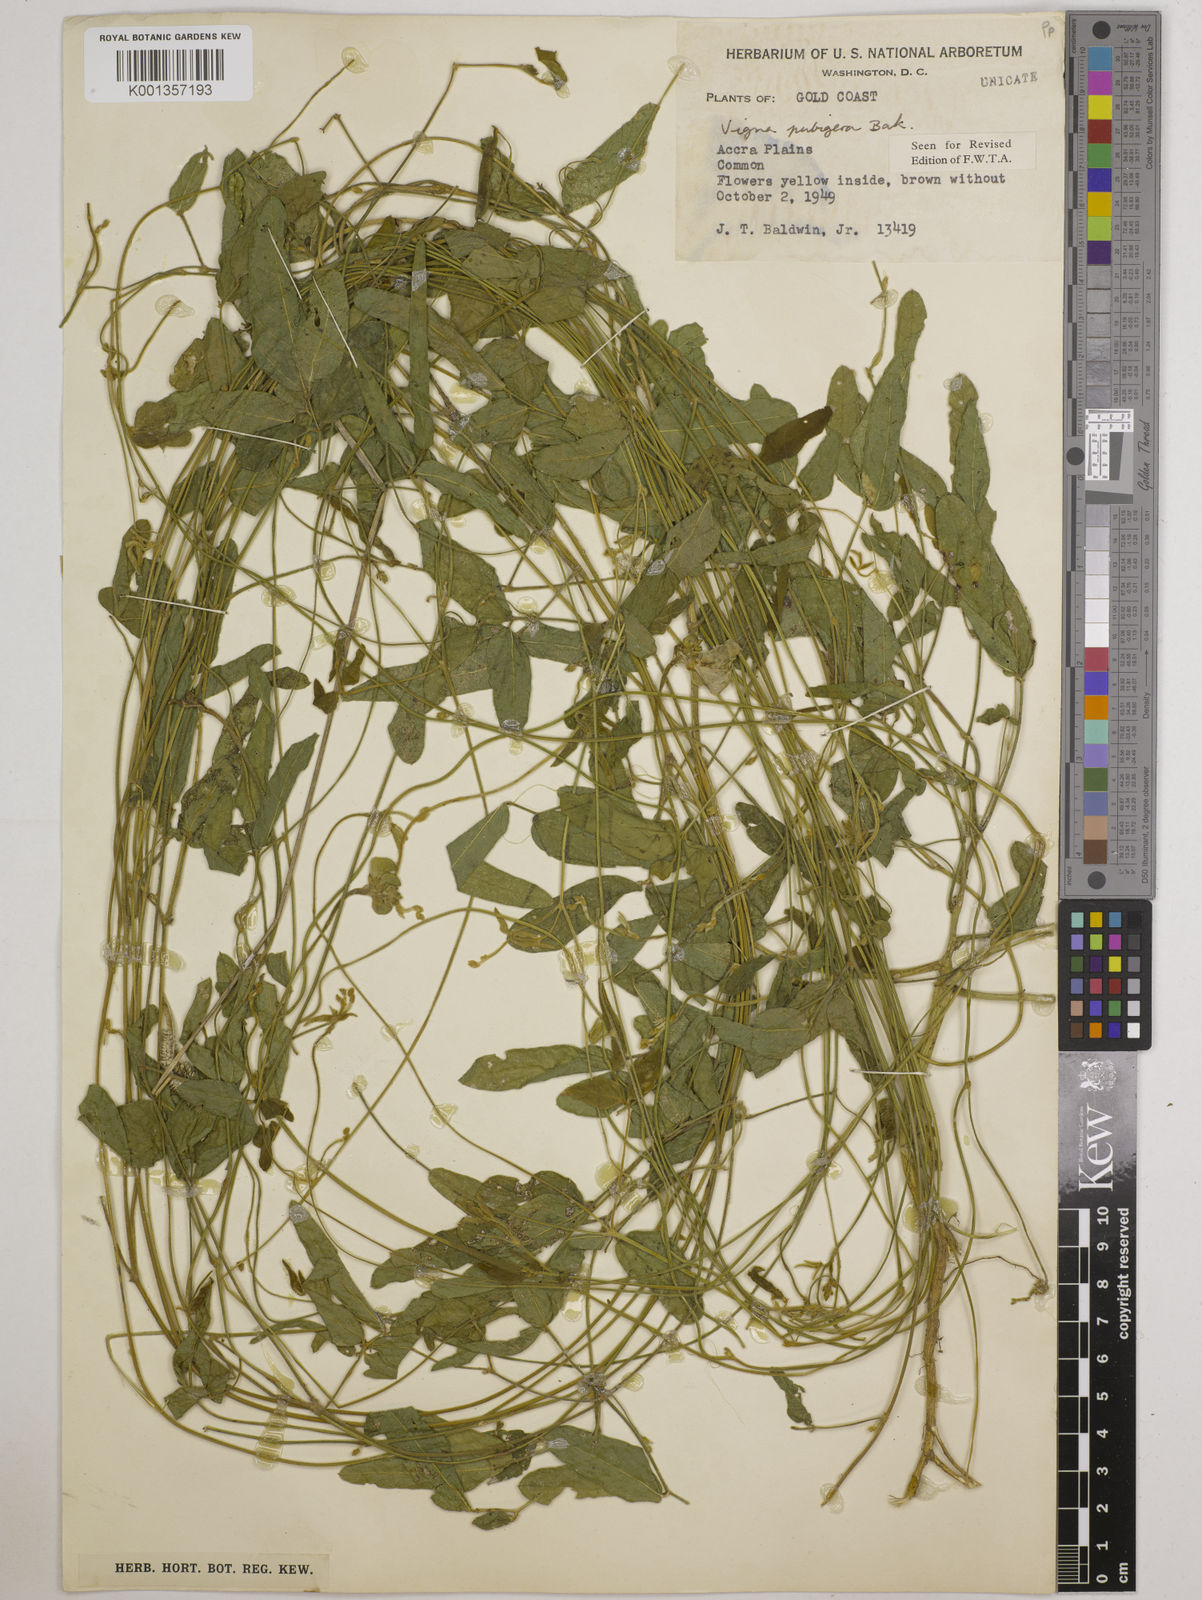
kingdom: Plantae
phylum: Tracheophyta
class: Magnoliopsida
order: Fabales
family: Fabaceae
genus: Vigna
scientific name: Vigna ambacensis
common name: Tsarkiyan zomo
